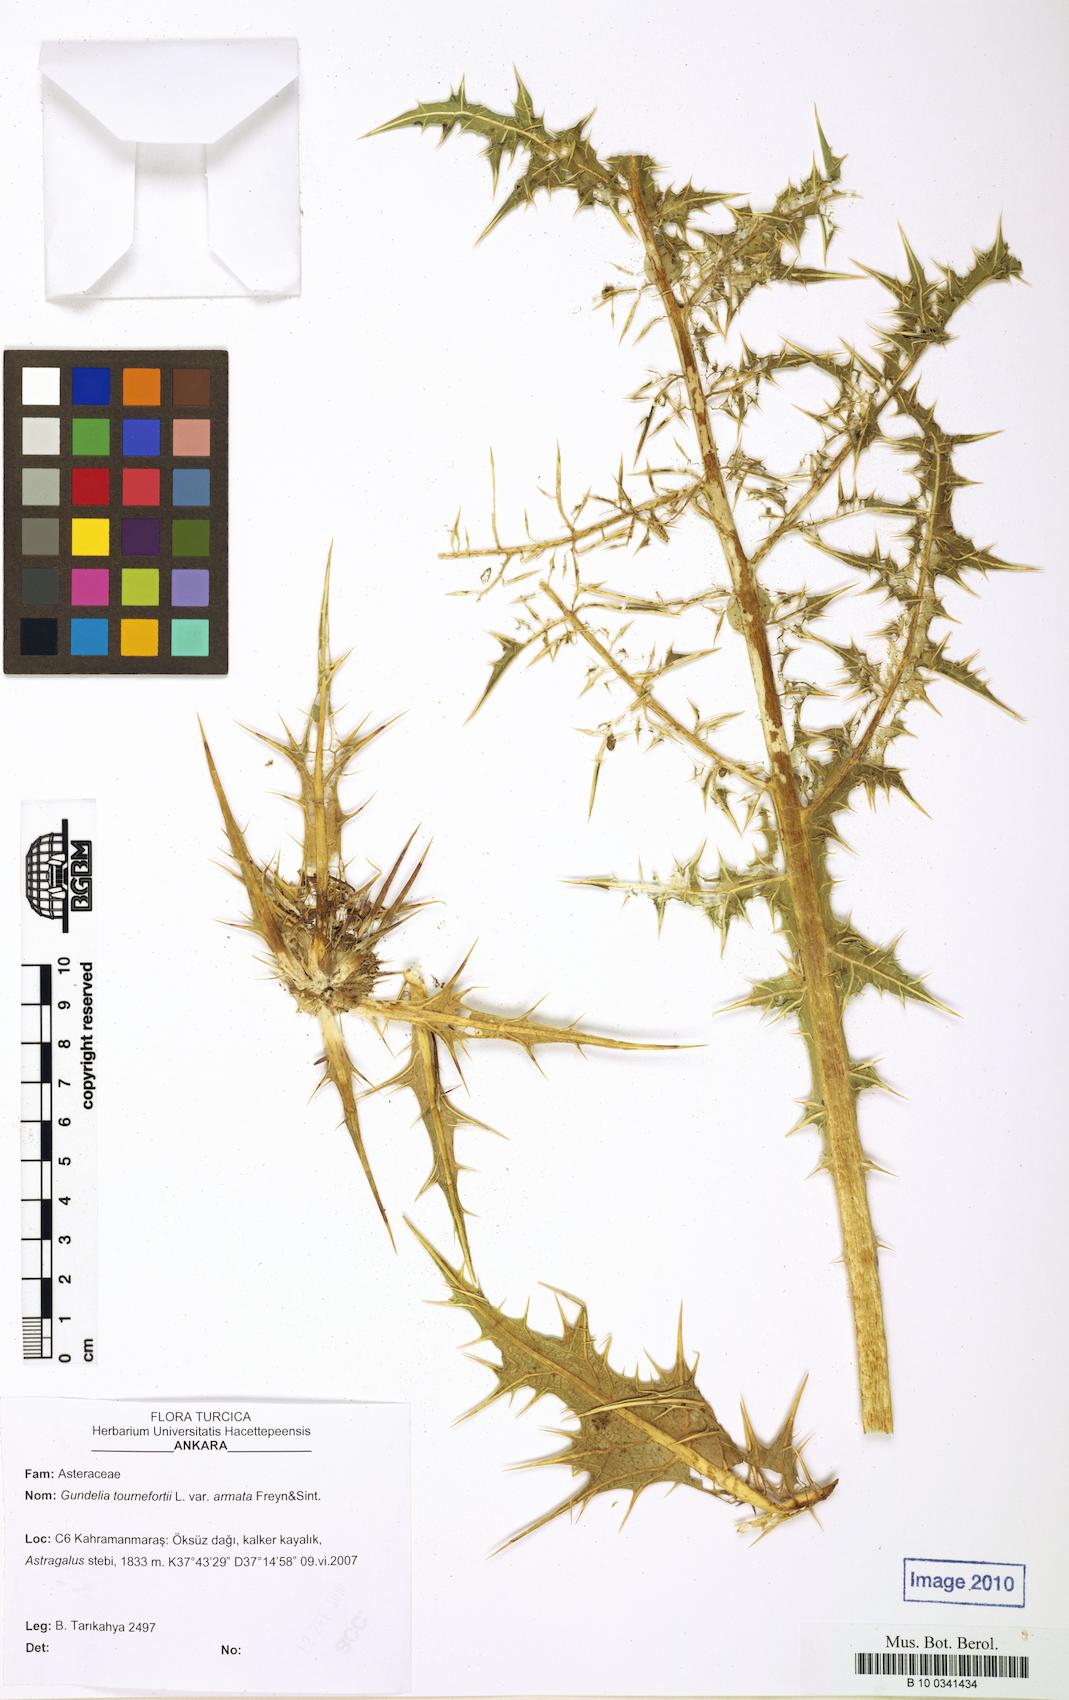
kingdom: Plantae
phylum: Tracheophyta
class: Magnoliopsida
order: Asterales
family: Asteraceae
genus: Gundelia
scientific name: Gundelia dersim
